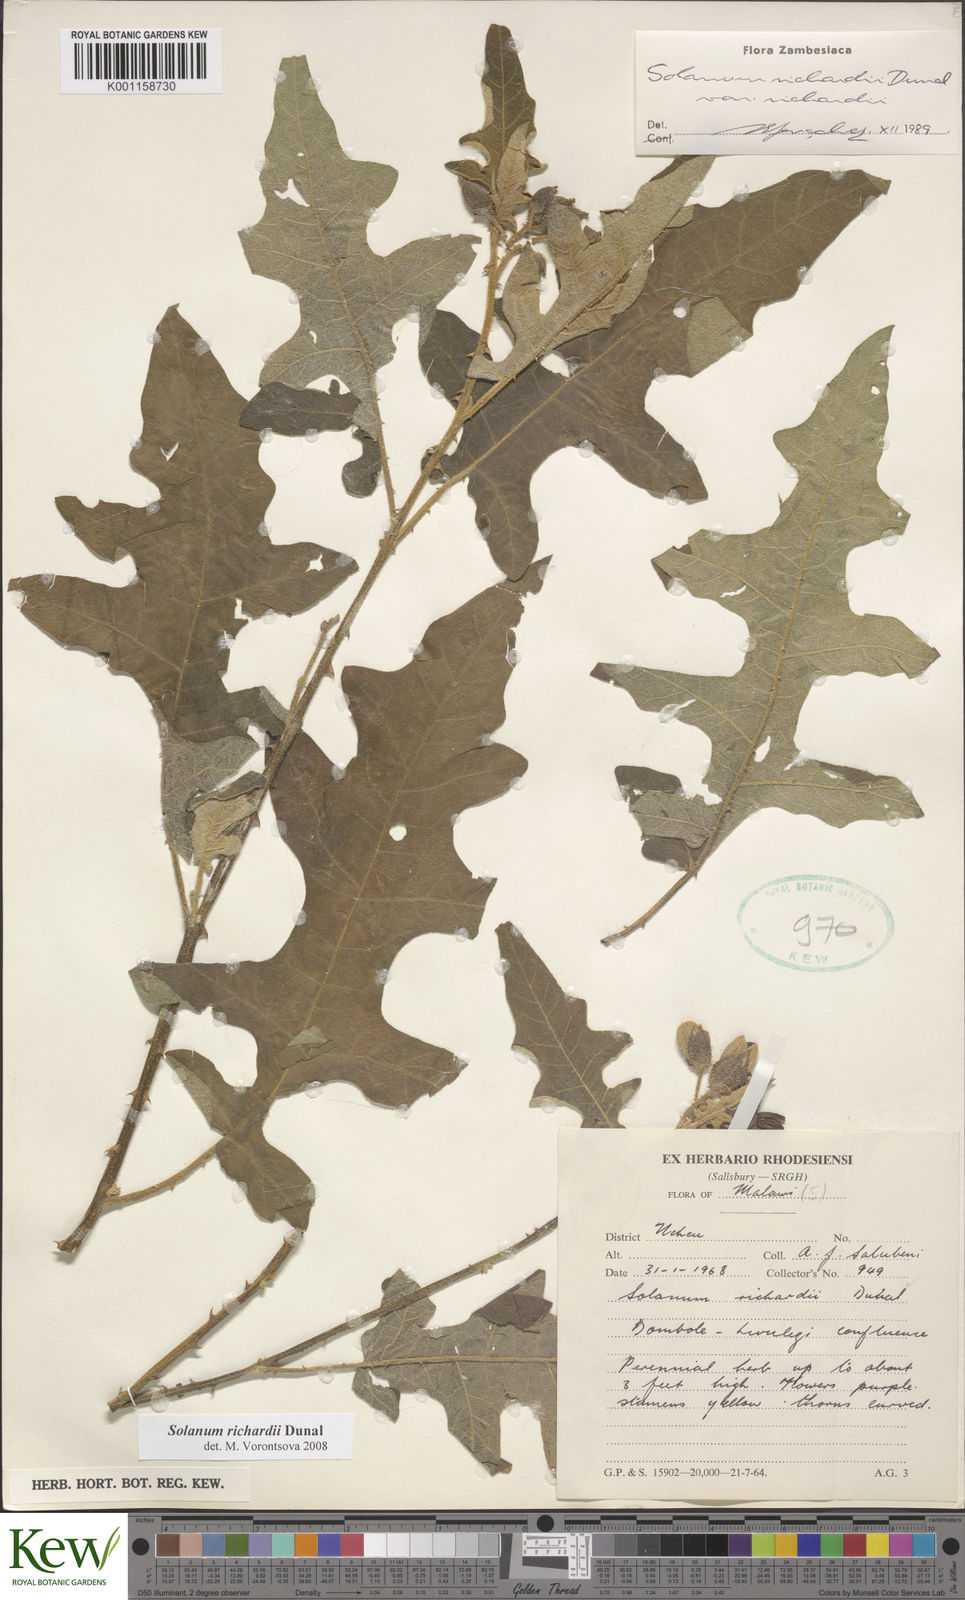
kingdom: Plantae
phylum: Tracheophyta
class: Magnoliopsida
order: Solanales
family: Solanaceae
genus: Solanum
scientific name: Solanum richardii
